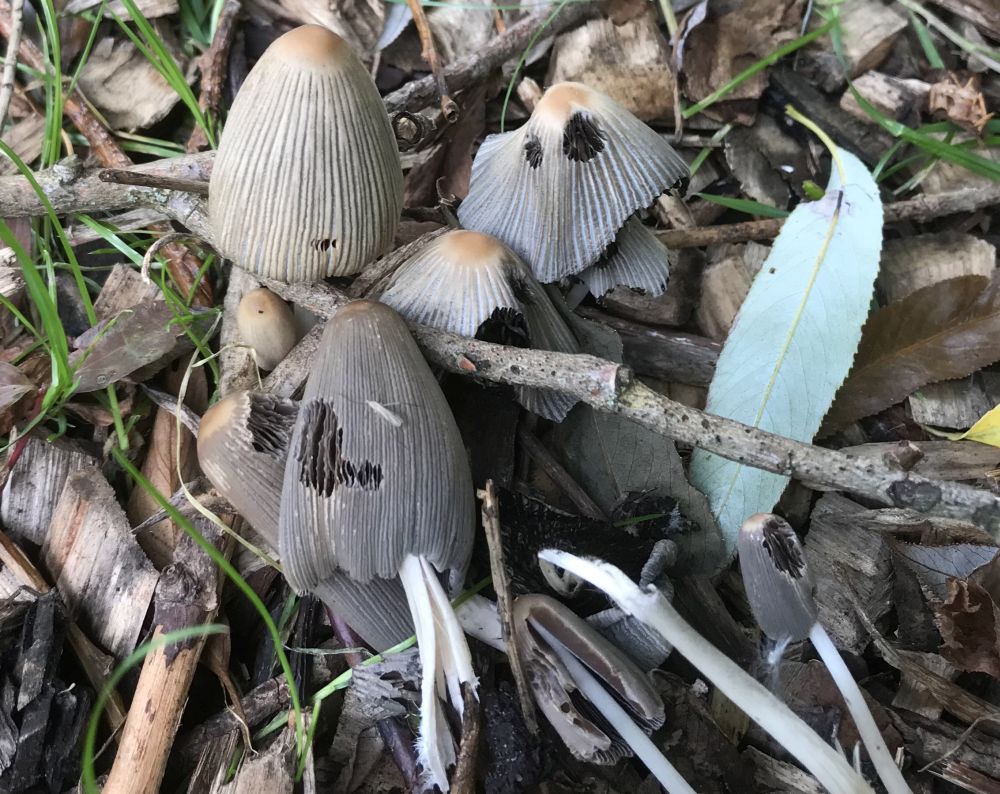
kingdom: Fungi
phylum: Basidiomycota
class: Agaricomycetes
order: Agaricales
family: Psathyrellaceae
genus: Tulosesus
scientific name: Tulosesus
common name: blækhat
